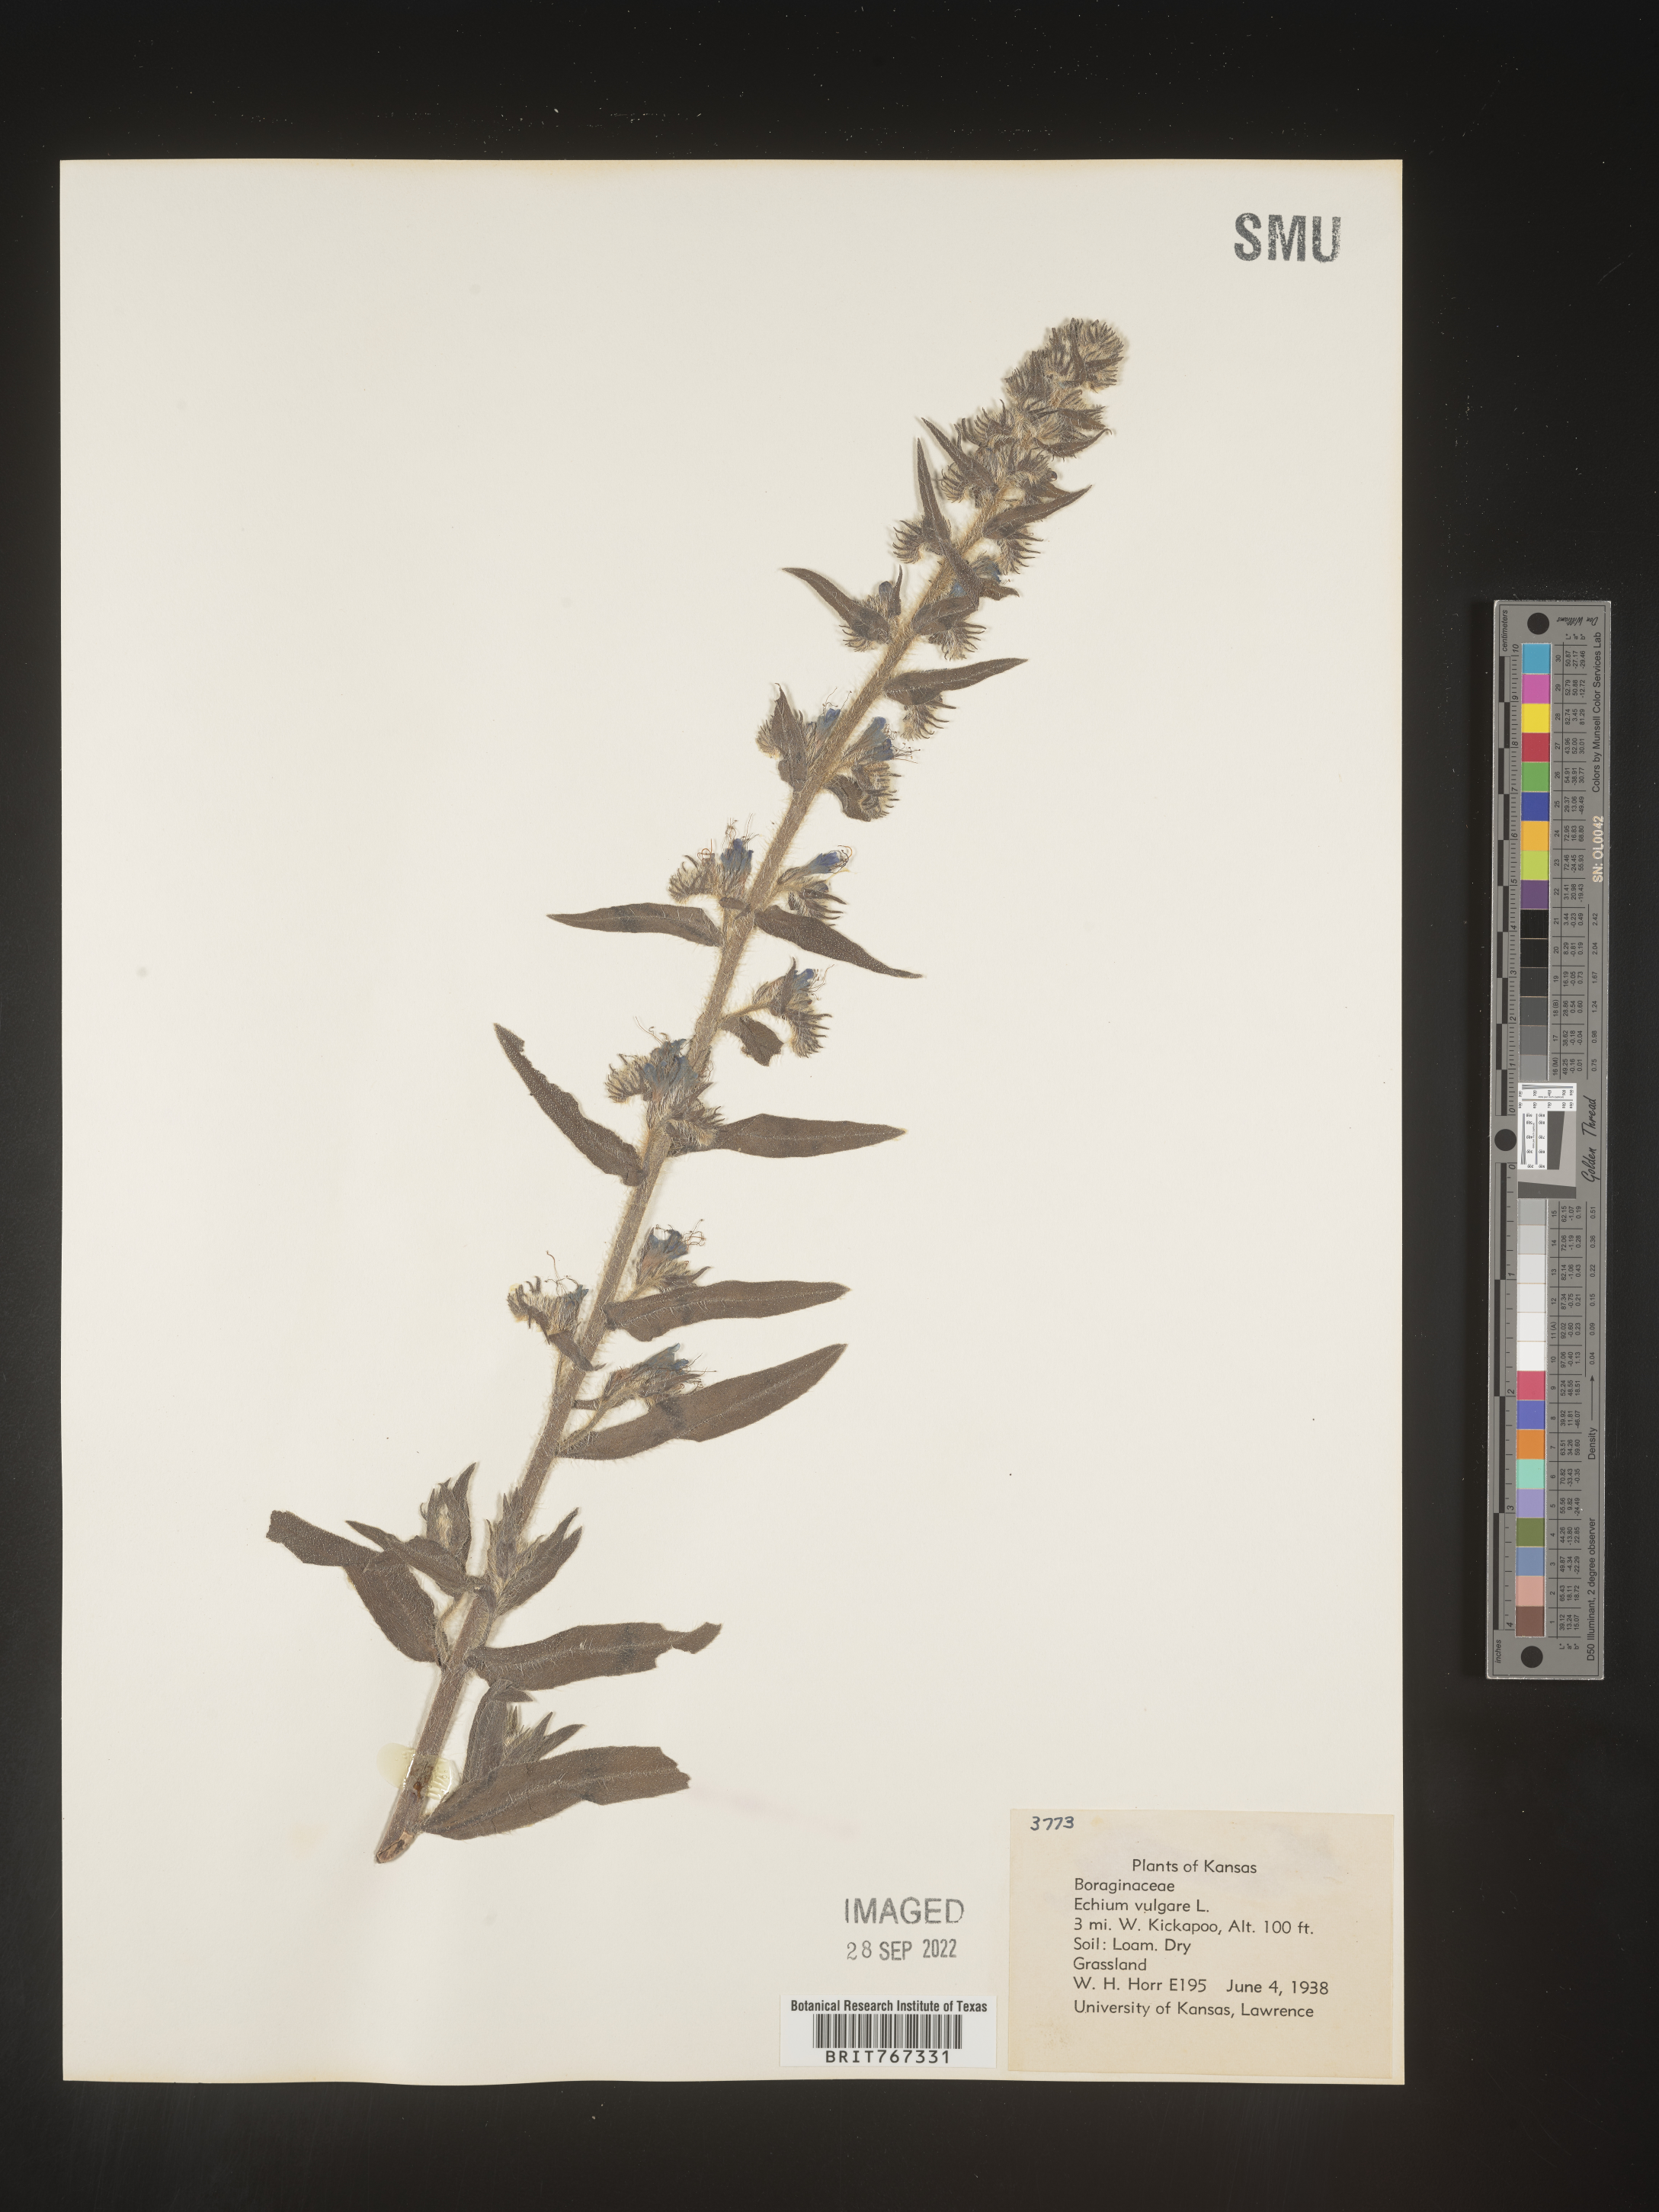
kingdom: Plantae
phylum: Tracheophyta
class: Magnoliopsida
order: Boraginales
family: Boraginaceae
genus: Echium
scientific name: Echium
